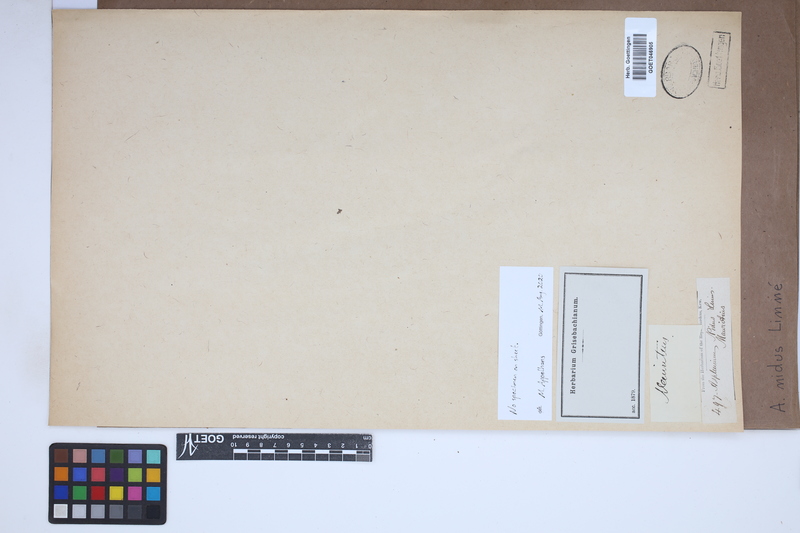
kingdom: Plantae
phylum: Tracheophyta
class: Polypodiopsida
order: Polypodiales
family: Aspleniaceae
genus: Asplenium
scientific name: Asplenium nidus
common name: Bird's-nest fern
